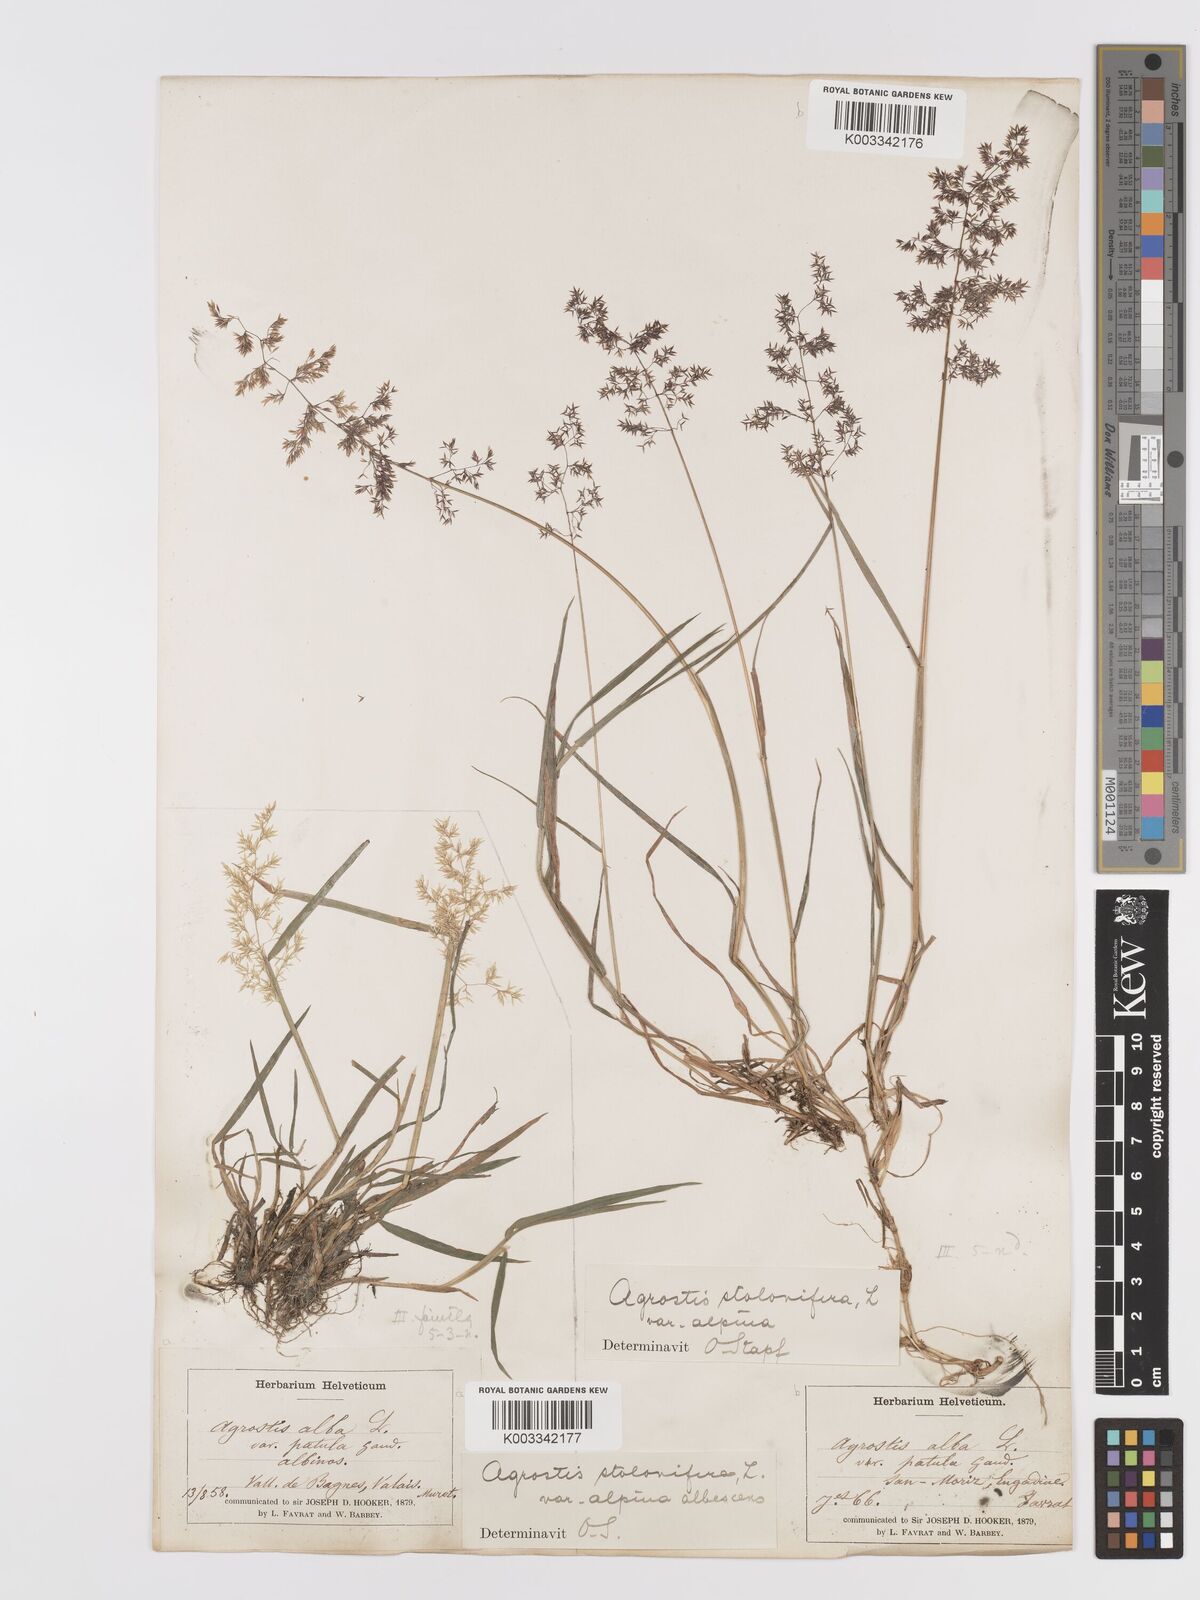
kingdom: Plantae
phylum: Tracheophyta
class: Liliopsida
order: Poales
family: Poaceae
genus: Agrostis
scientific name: Agrostis stolonifera
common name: Creeping bentgrass
